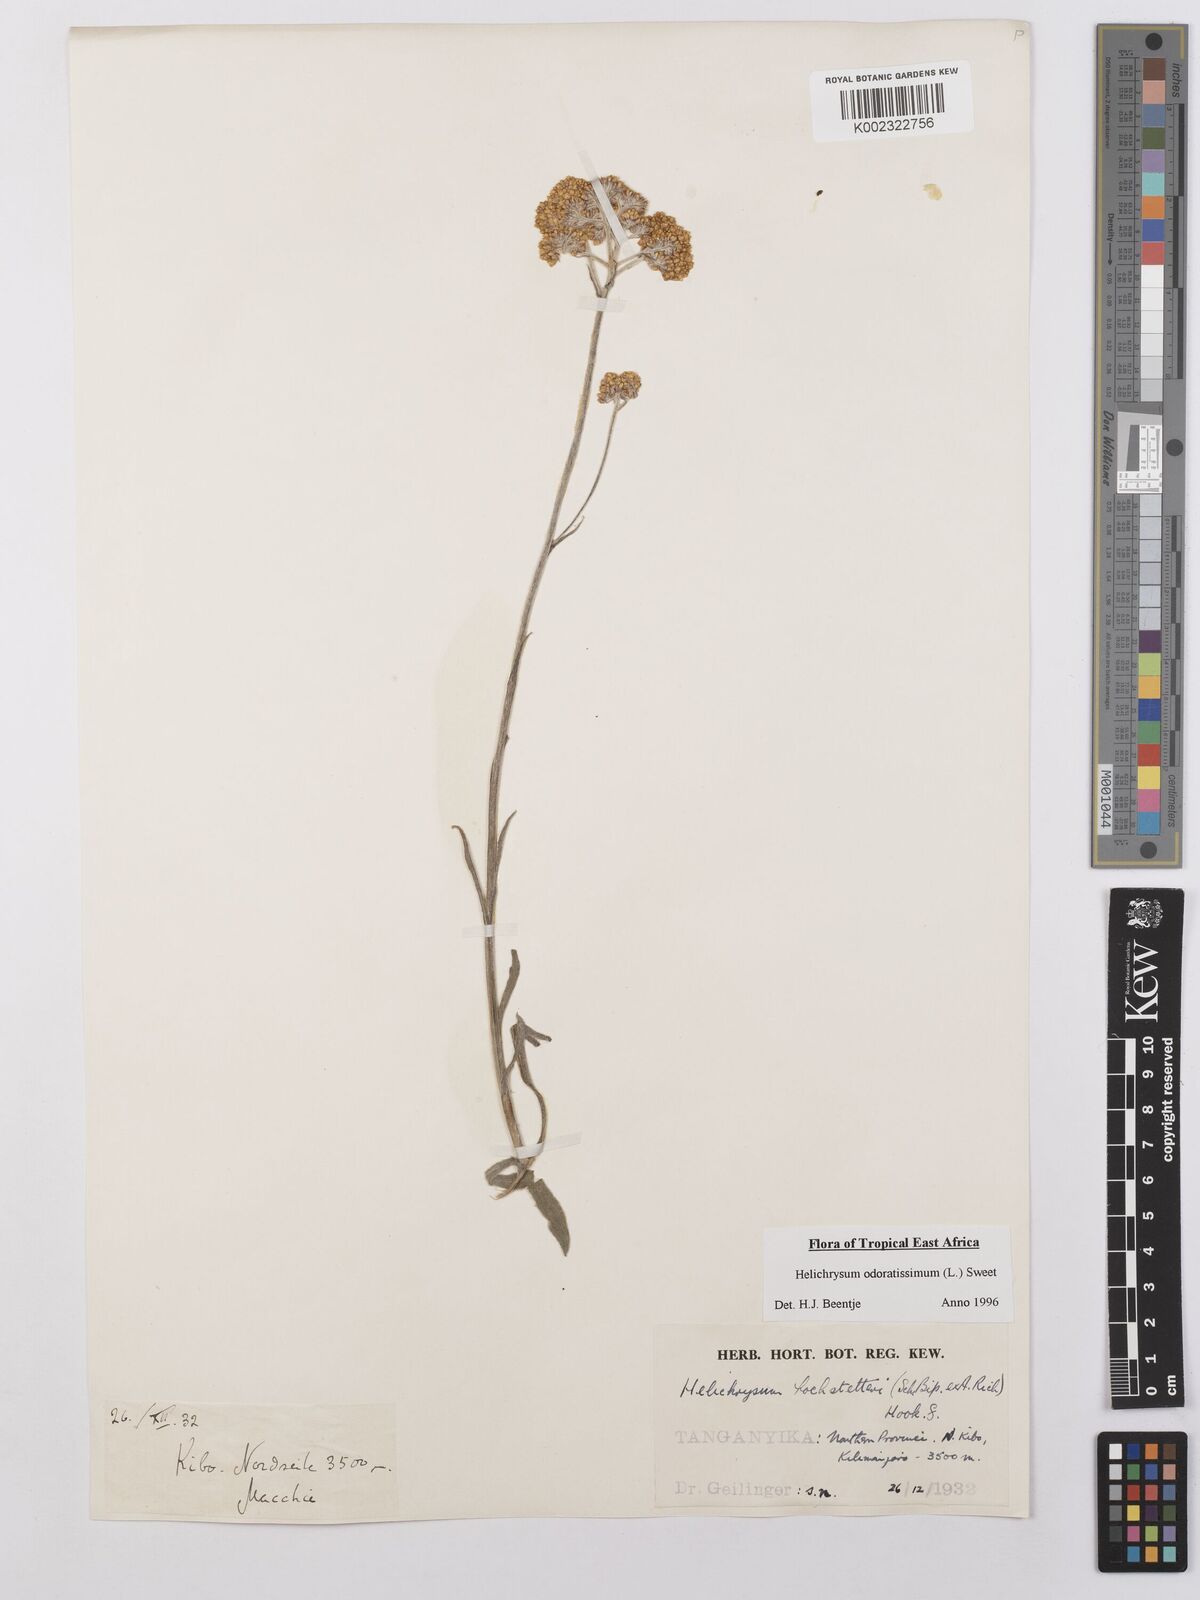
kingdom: Plantae
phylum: Tracheophyta
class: Magnoliopsida
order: Asterales
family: Asteraceae
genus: Helichrysum
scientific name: Helichrysum odoratissimum
